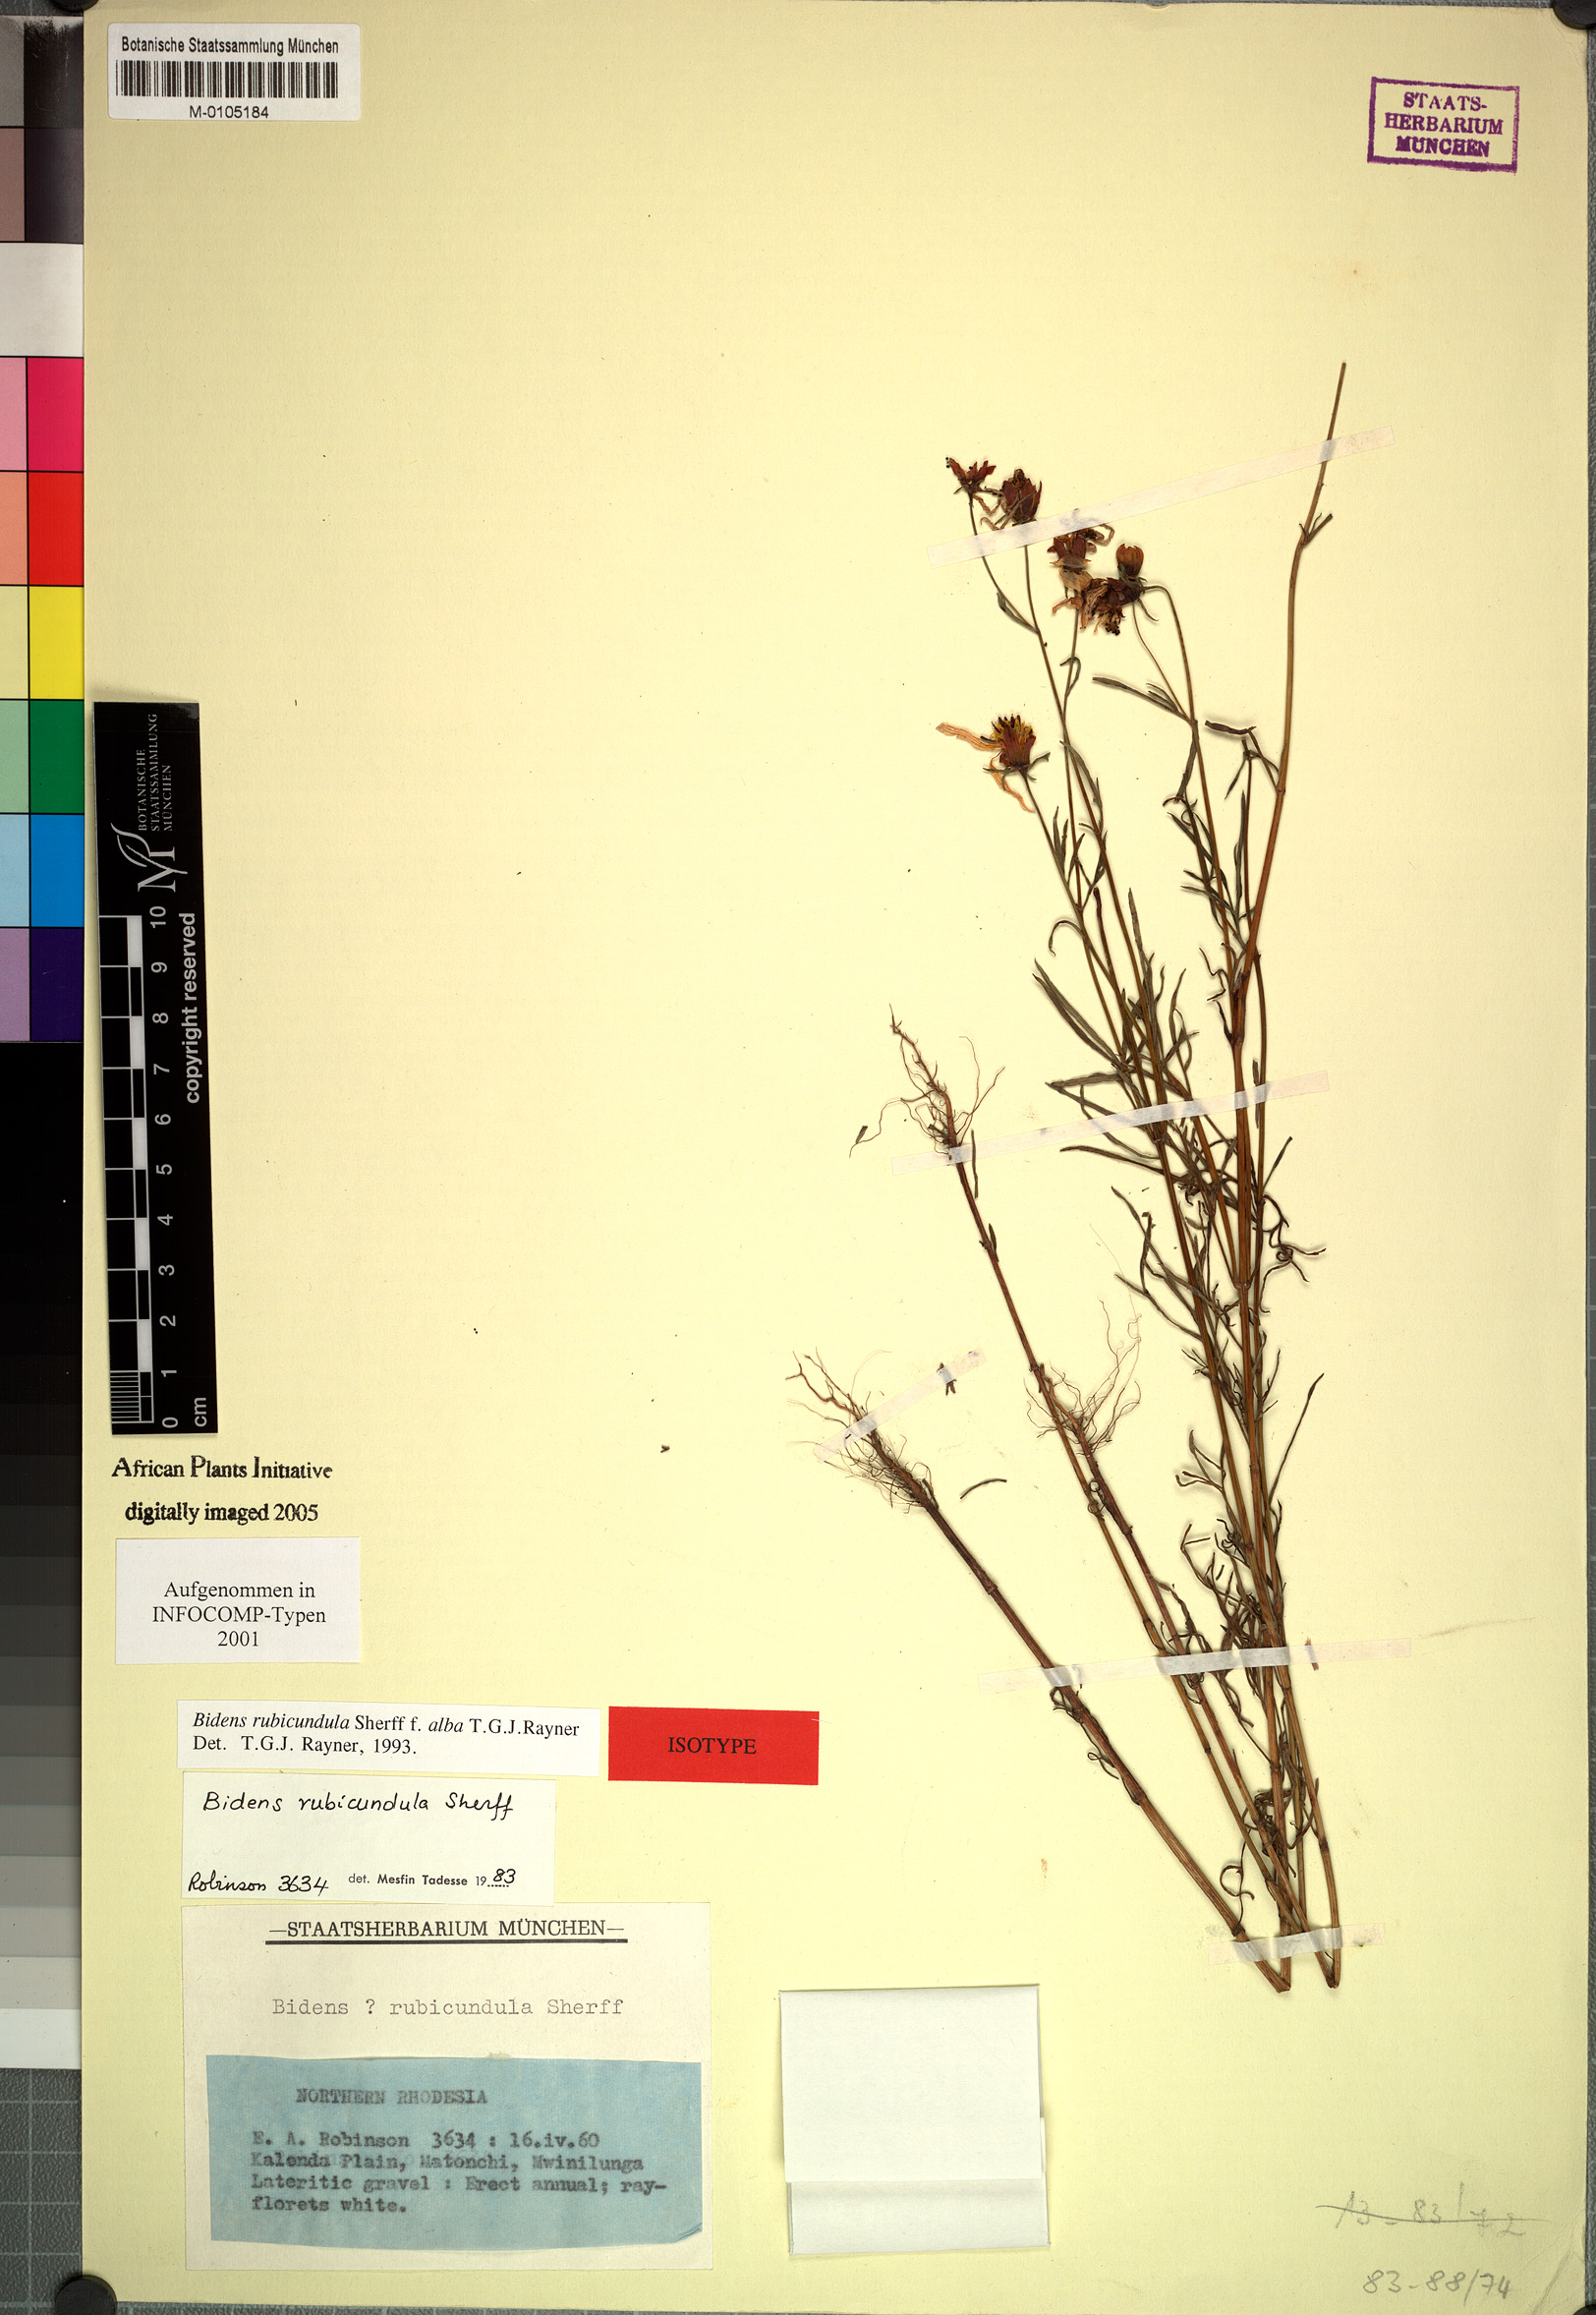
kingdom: Plantae
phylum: Tracheophyta
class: Magnoliopsida
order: Asterales
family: Asteraceae
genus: Bidens
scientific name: Bidens rubicundula
